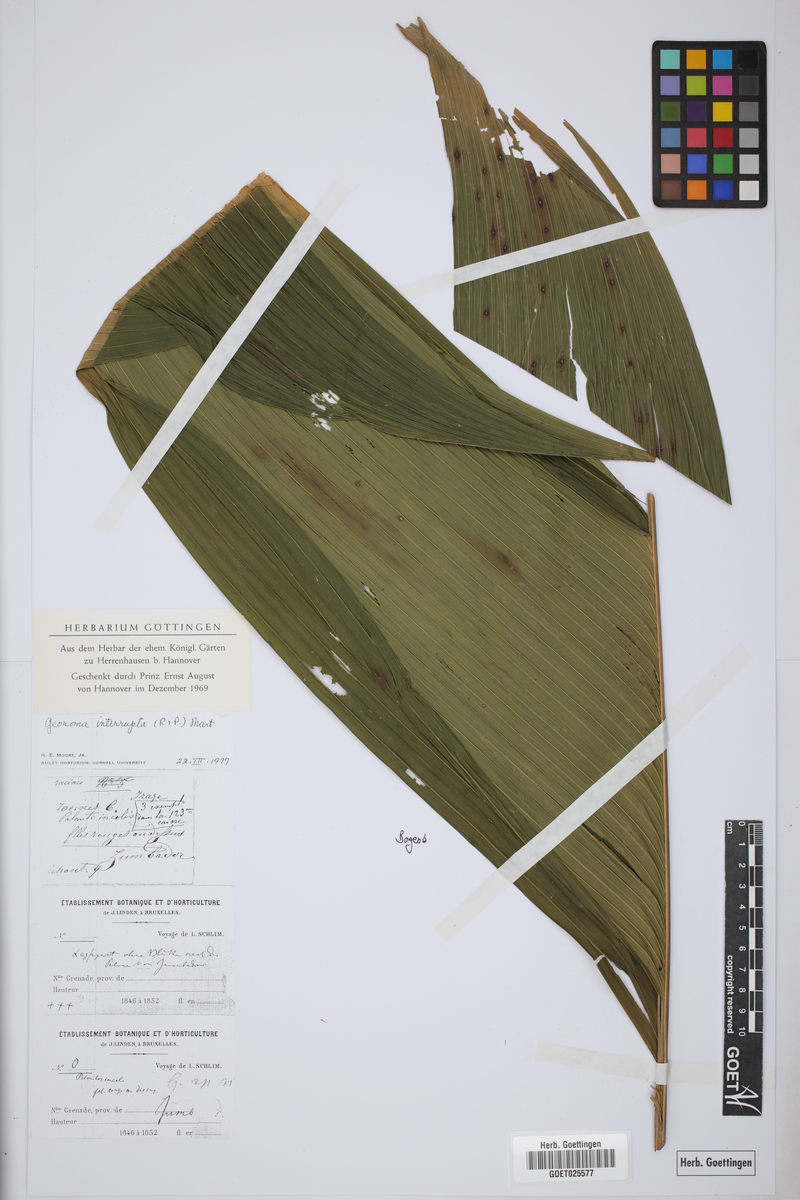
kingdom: Plantae
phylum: Tracheophyta
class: Liliopsida
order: Arecales
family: Arecaceae
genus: Geonoma
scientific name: Geonoma interrupta
